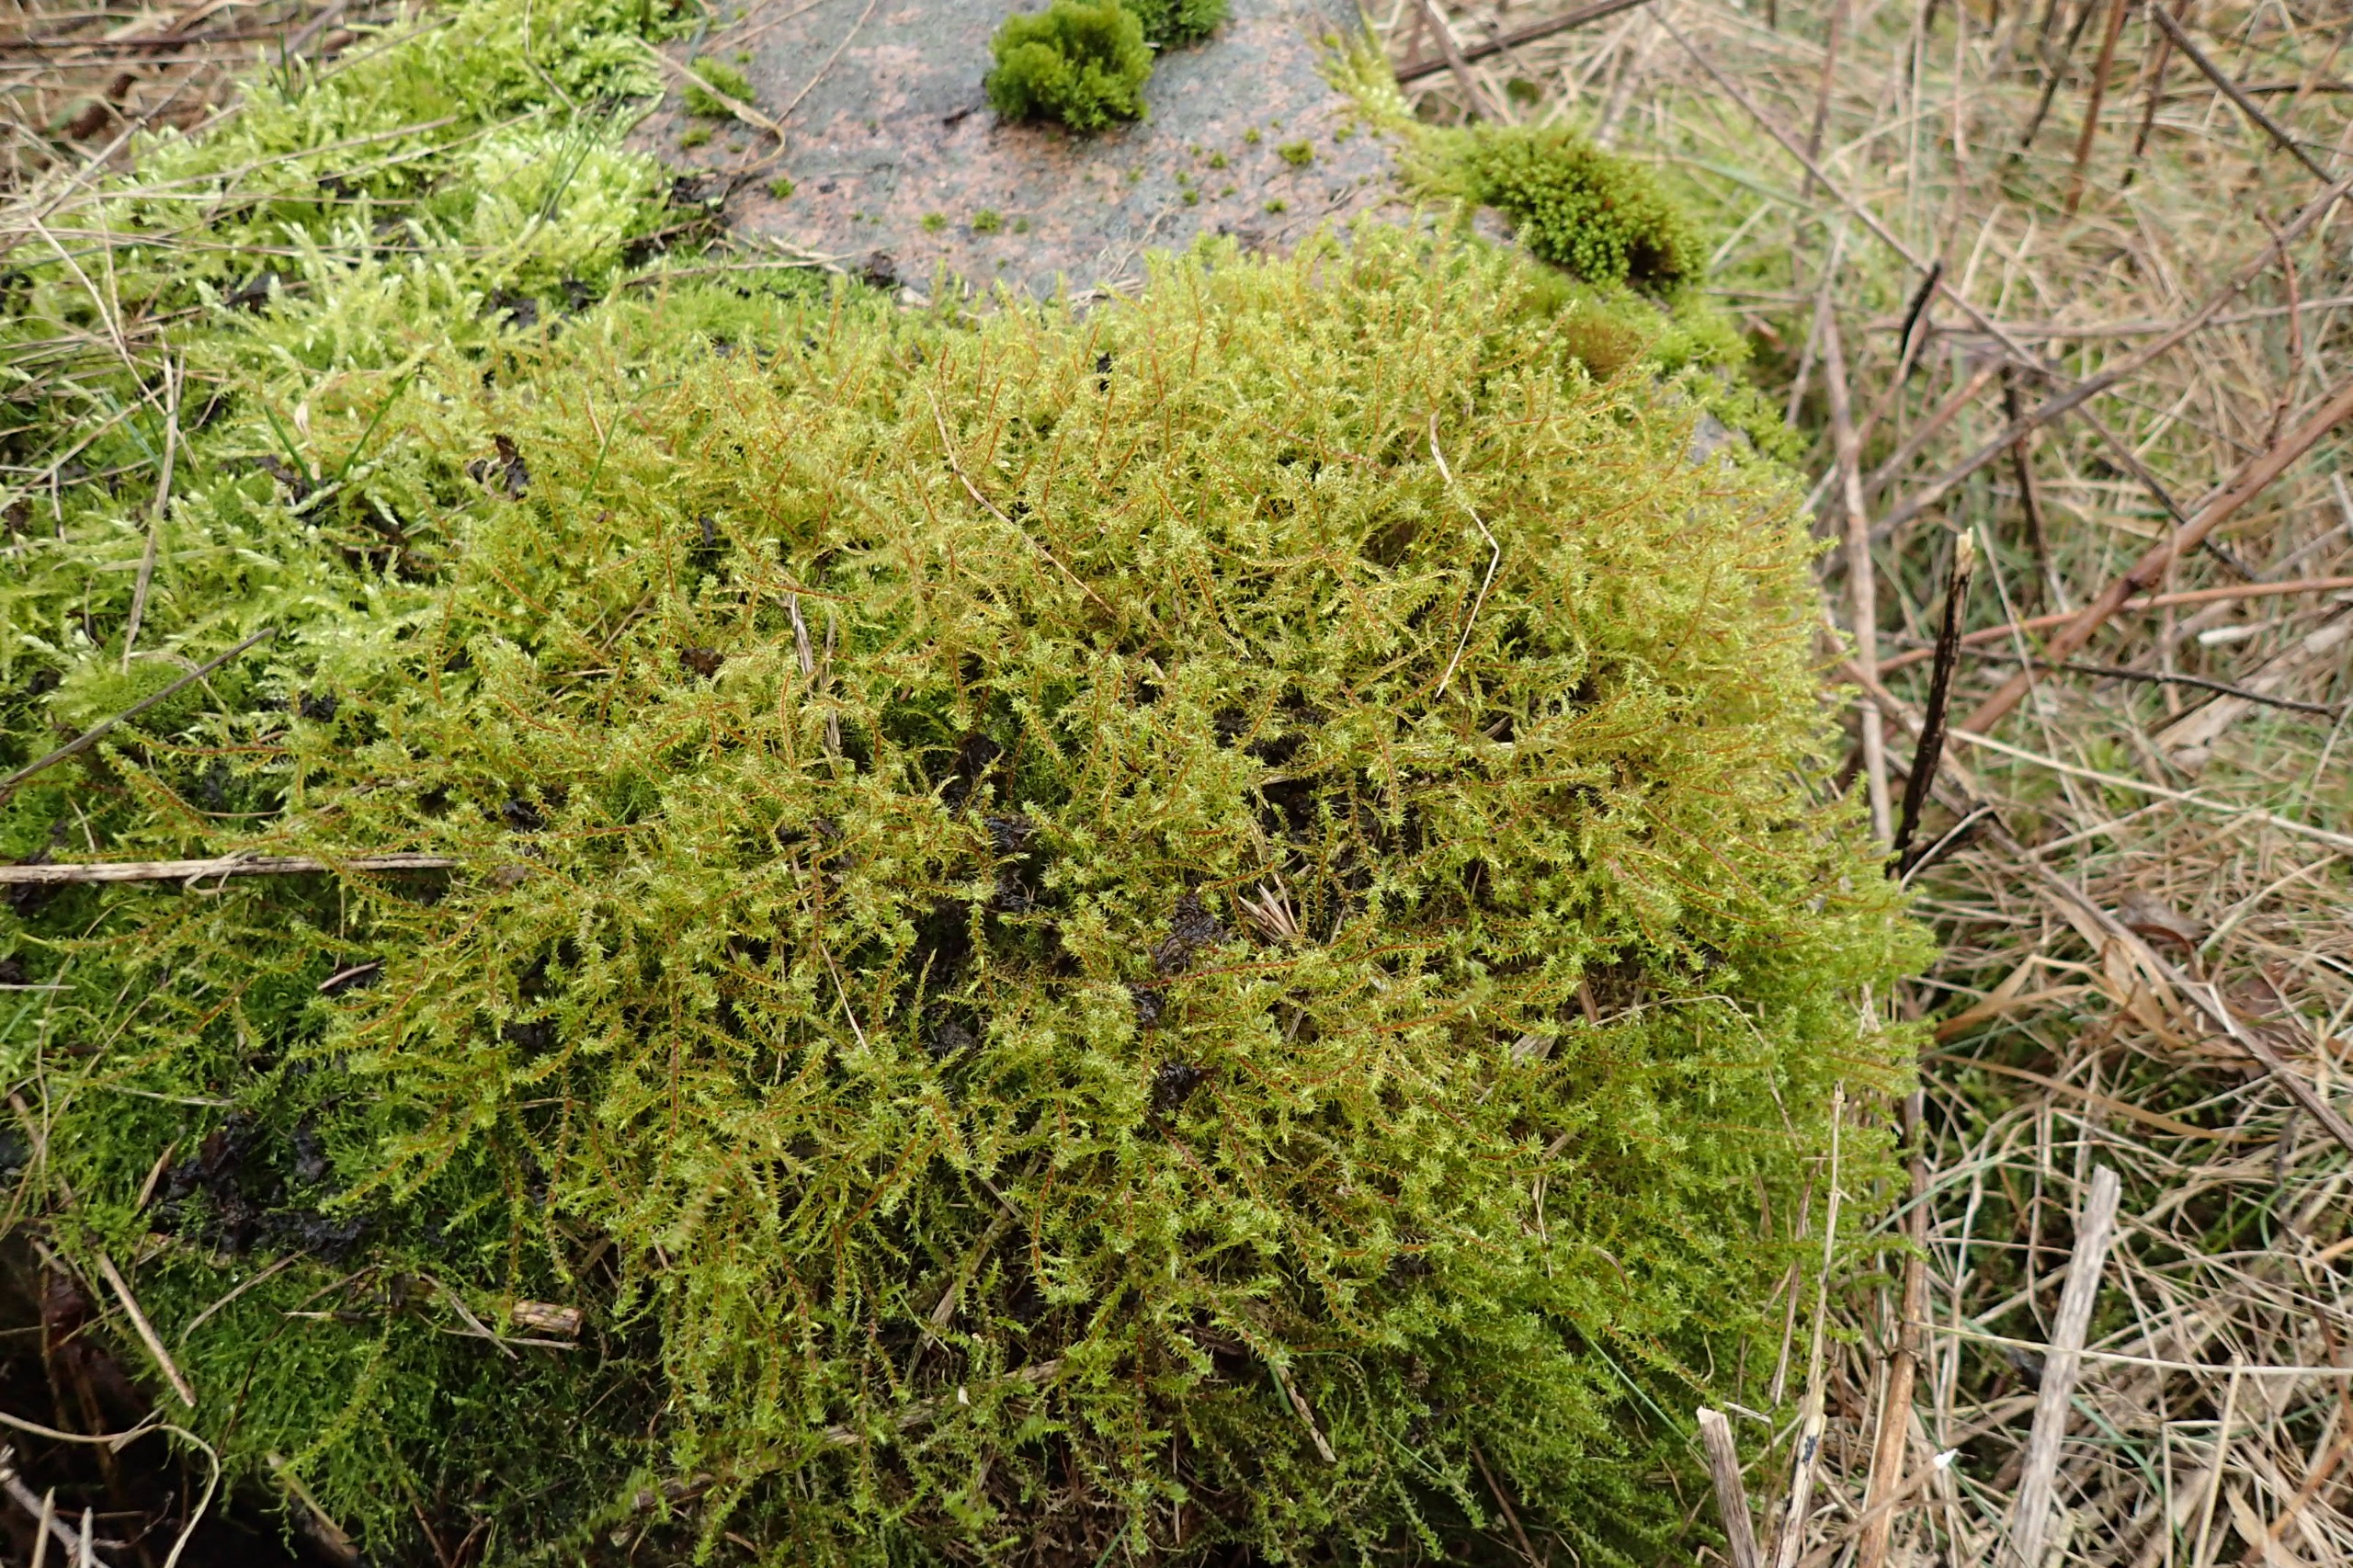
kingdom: Plantae
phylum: Bryophyta
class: Bryopsida
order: Hypnales
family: Hylocomiaceae
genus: Rhytidiadelphus
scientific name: Rhytidiadelphus squarrosus
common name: Plæne-kransemos
